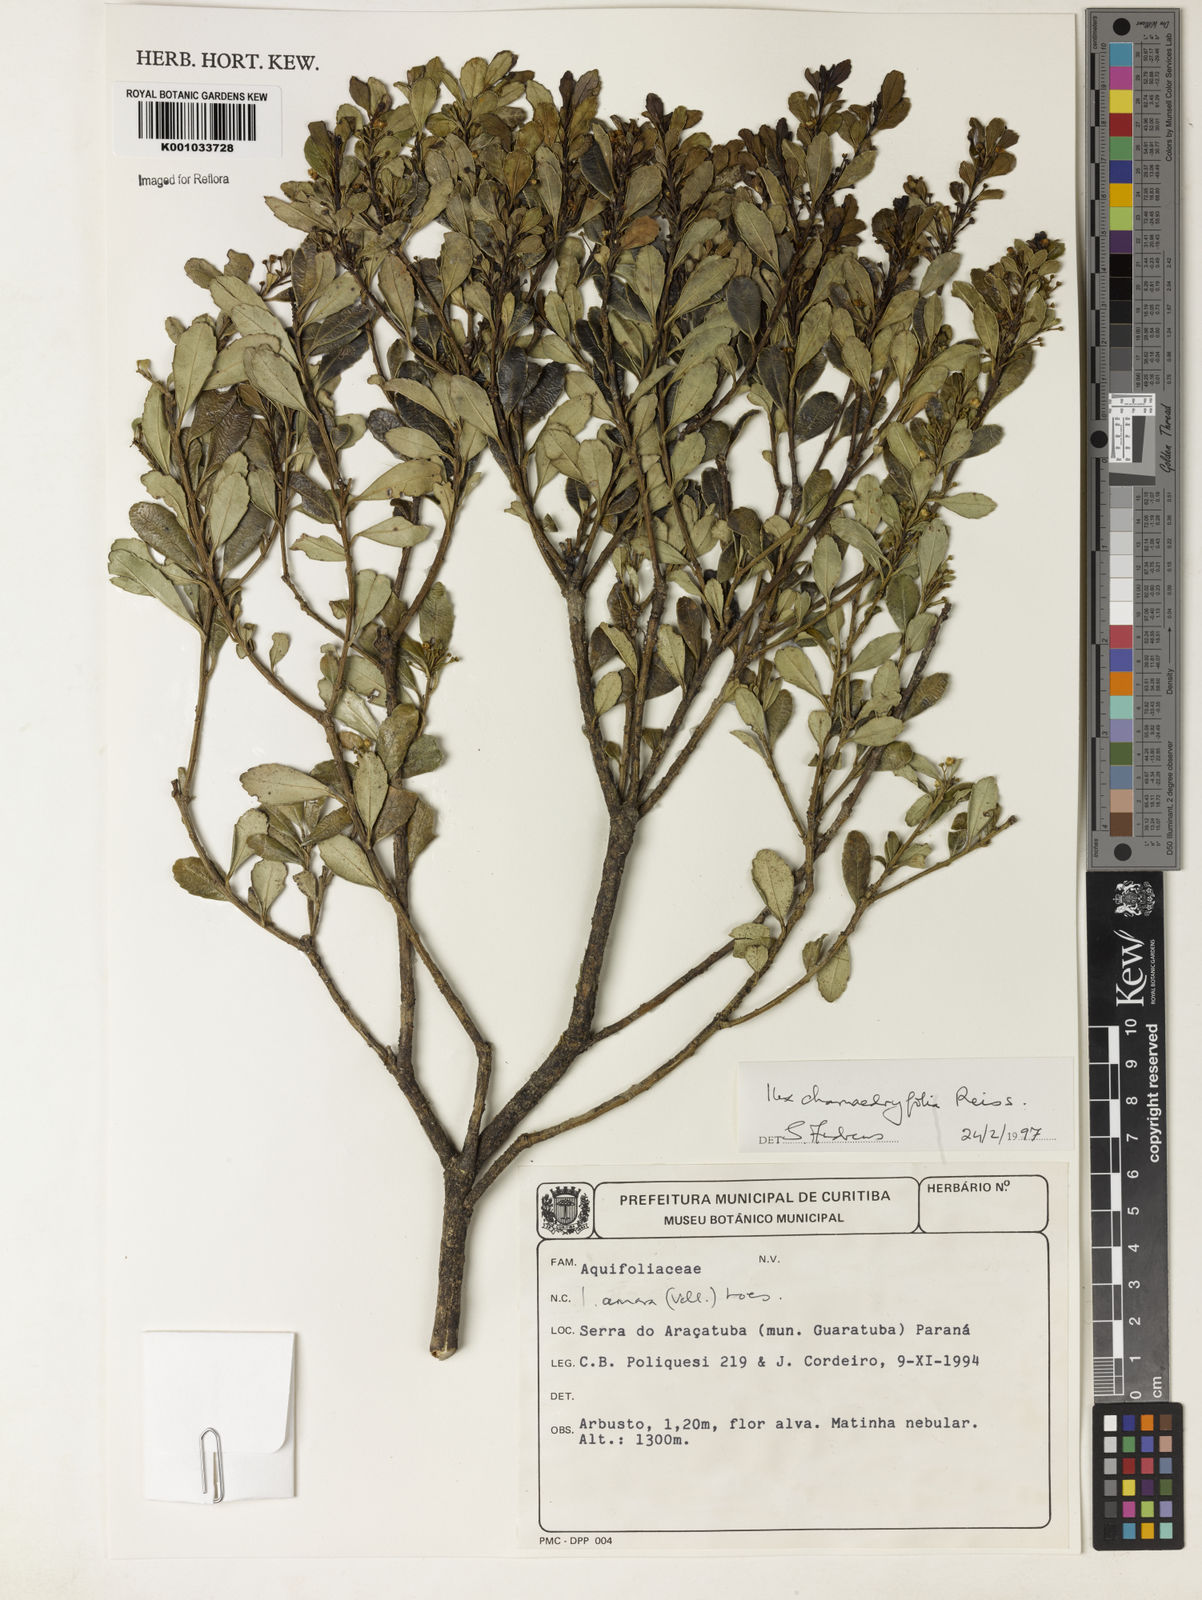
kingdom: Plantae
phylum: Tracheophyta
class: Magnoliopsida
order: Aquifoliales
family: Aquifoliaceae
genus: Ilex
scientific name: Ilex chamaedryfolia
